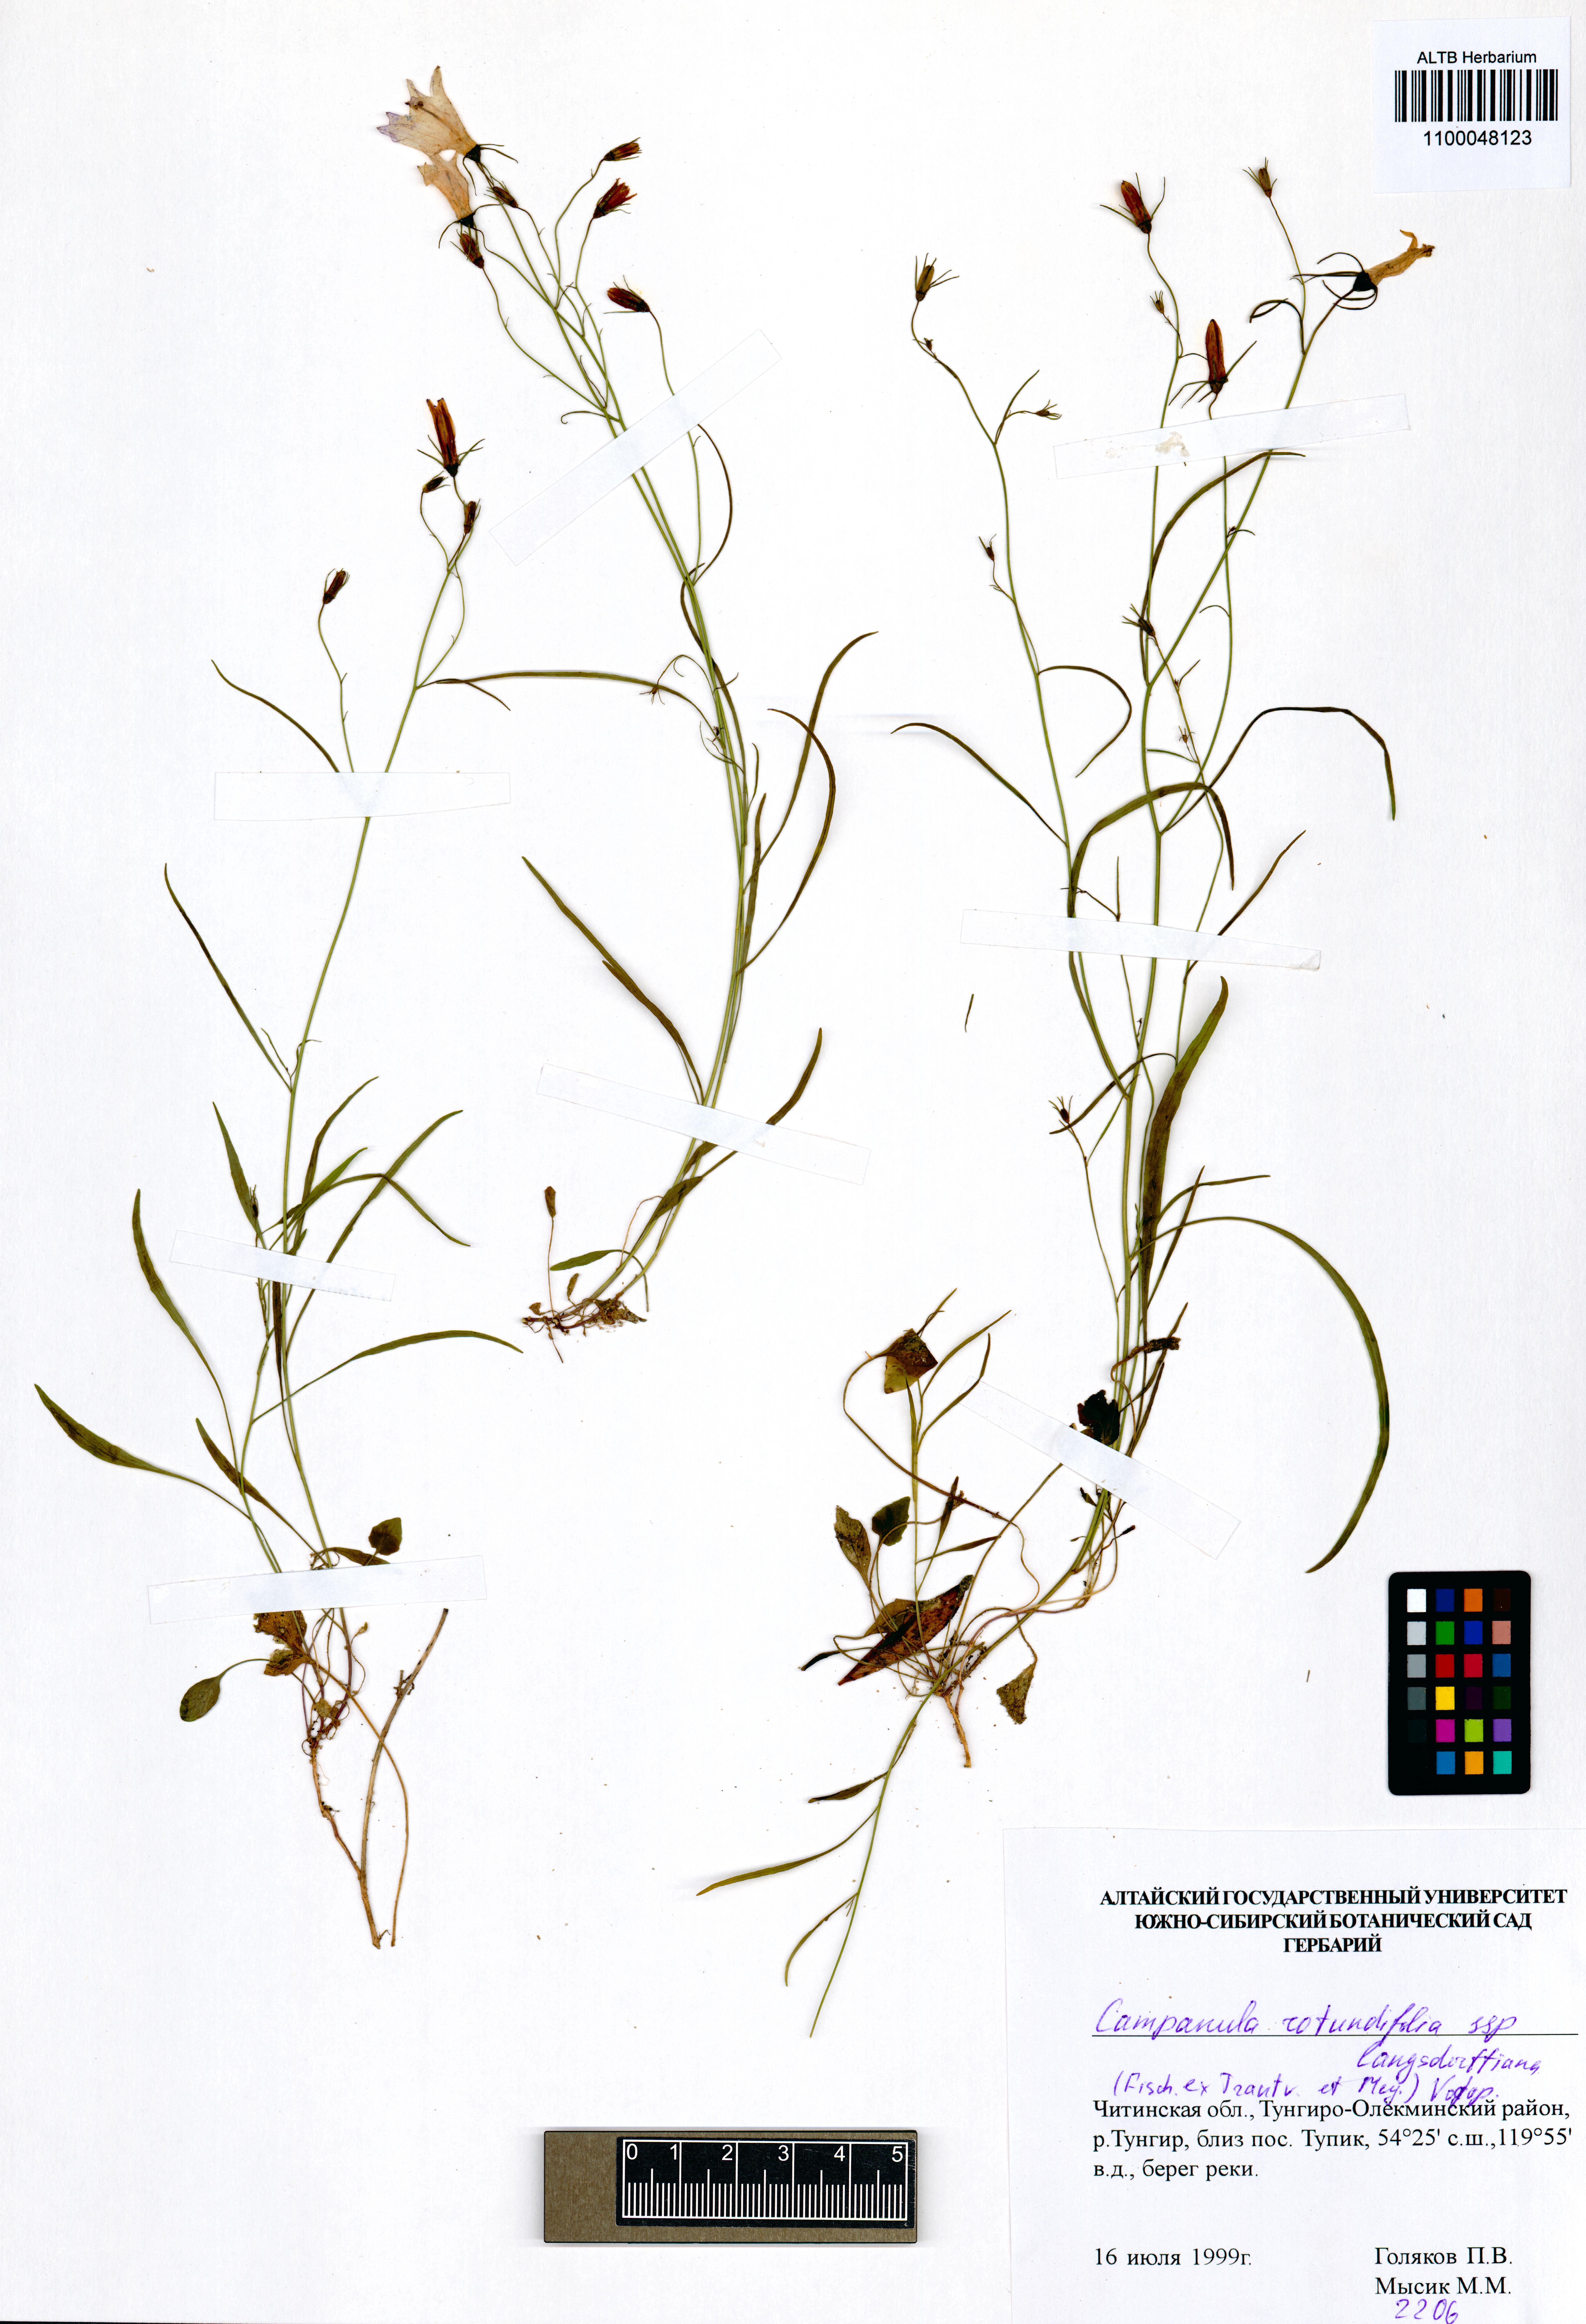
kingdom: Plantae
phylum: Tracheophyta
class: Magnoliopsida
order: Asterales
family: Campanulaceae
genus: Campanula
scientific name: Campanula rotundifolia
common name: Harebell
